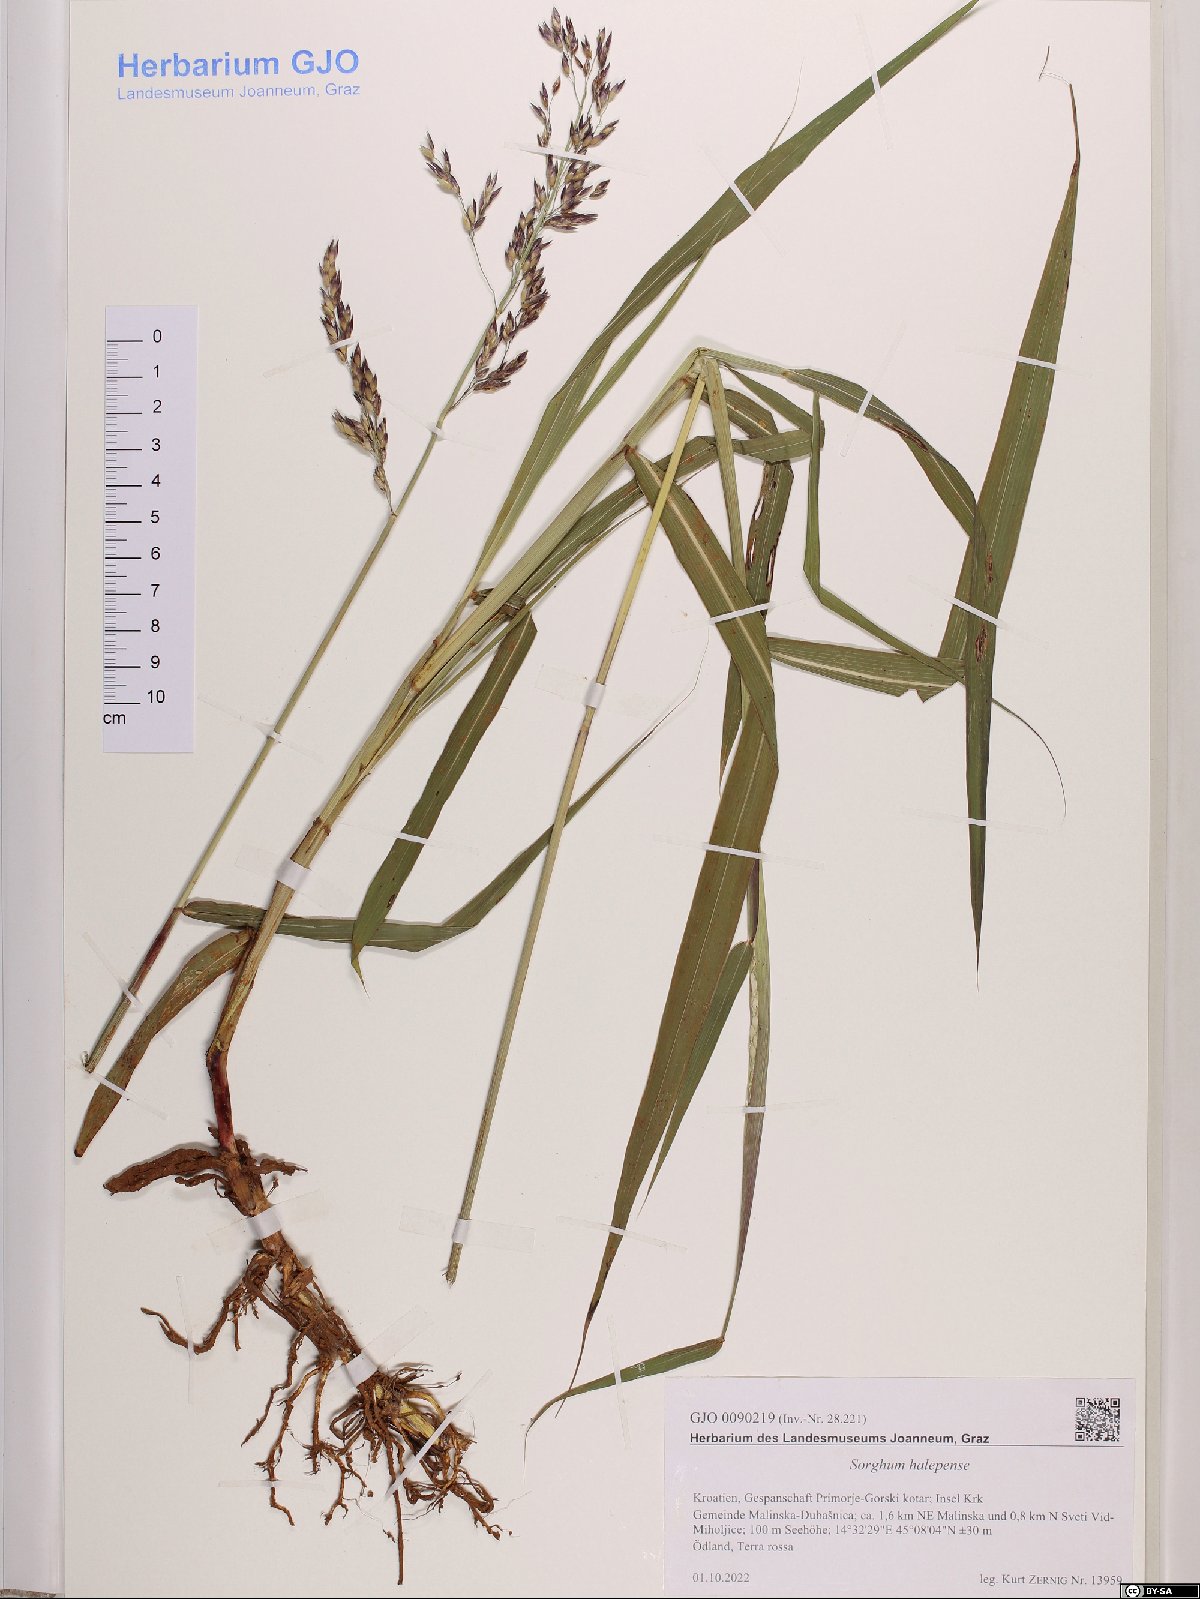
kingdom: Plantae
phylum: Tracheophyta
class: Liliopsida
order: Poales
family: Poaceae
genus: Sorghum
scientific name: Sorghum halepense
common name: Johnson-grass
